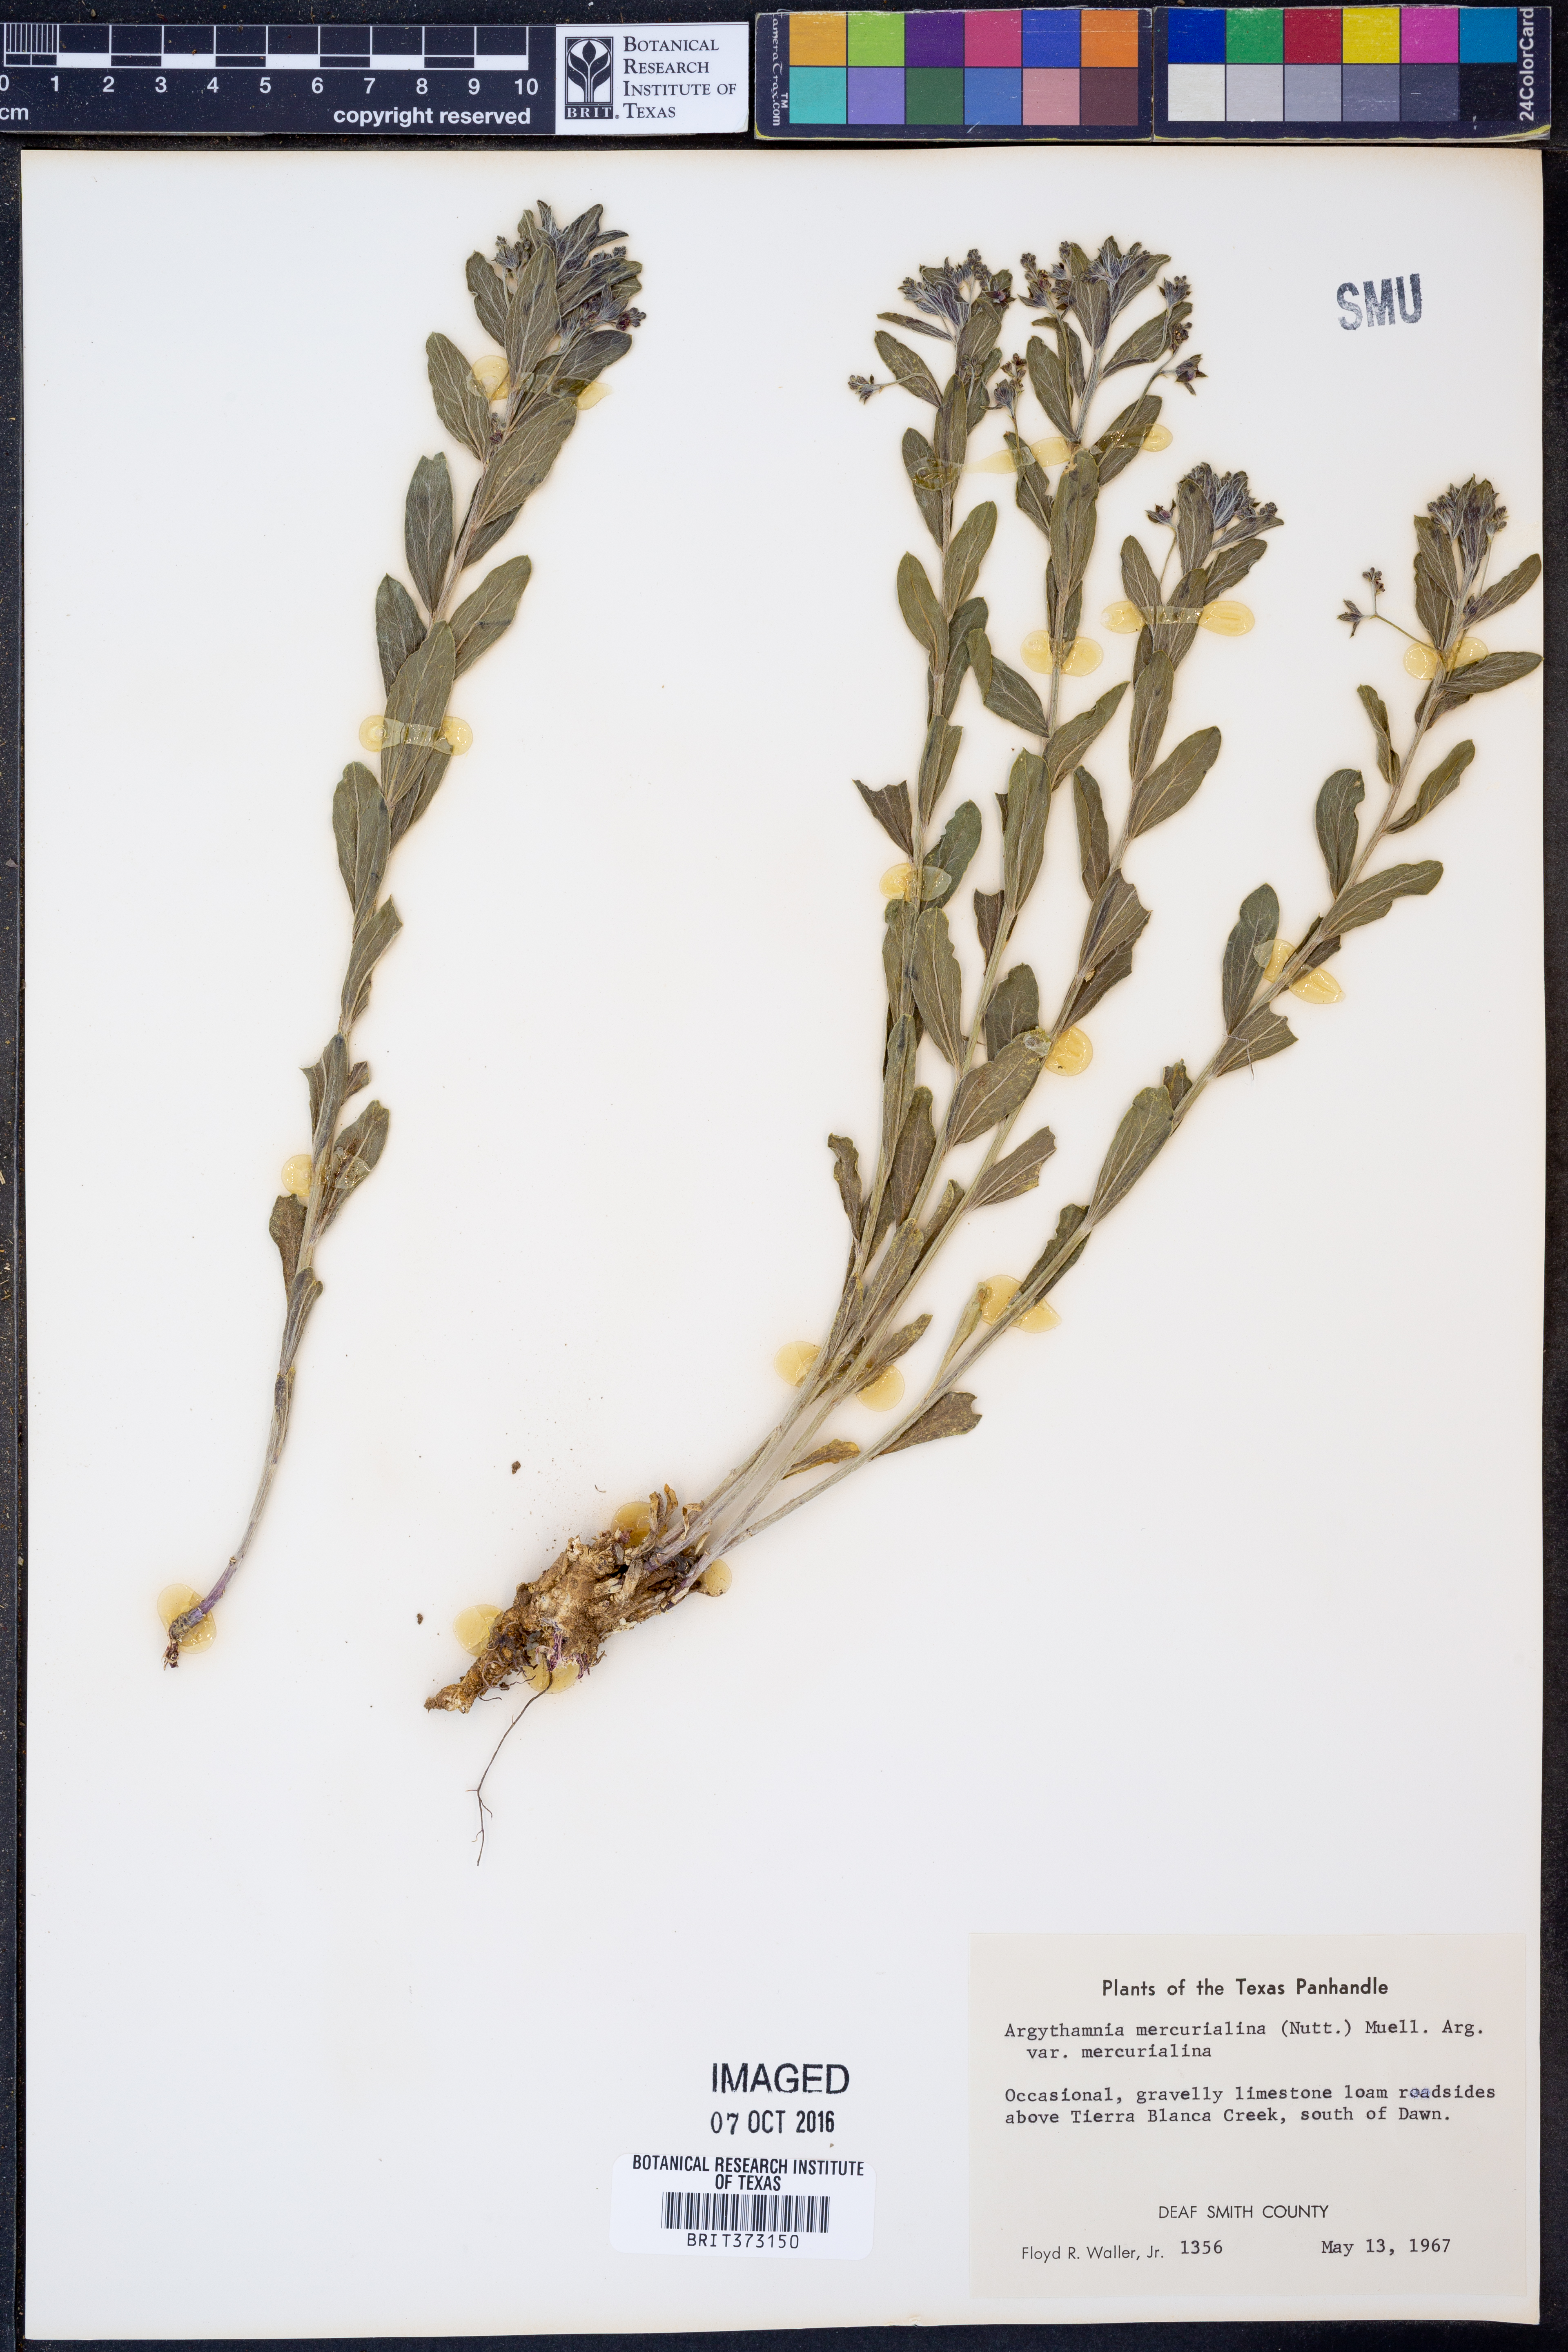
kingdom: Plantae
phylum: Tracheophyta
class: Magnoliopsida
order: Malpighiales
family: Euphorbiaceae
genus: Ditaxis
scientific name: Ditaxis mercurialina
